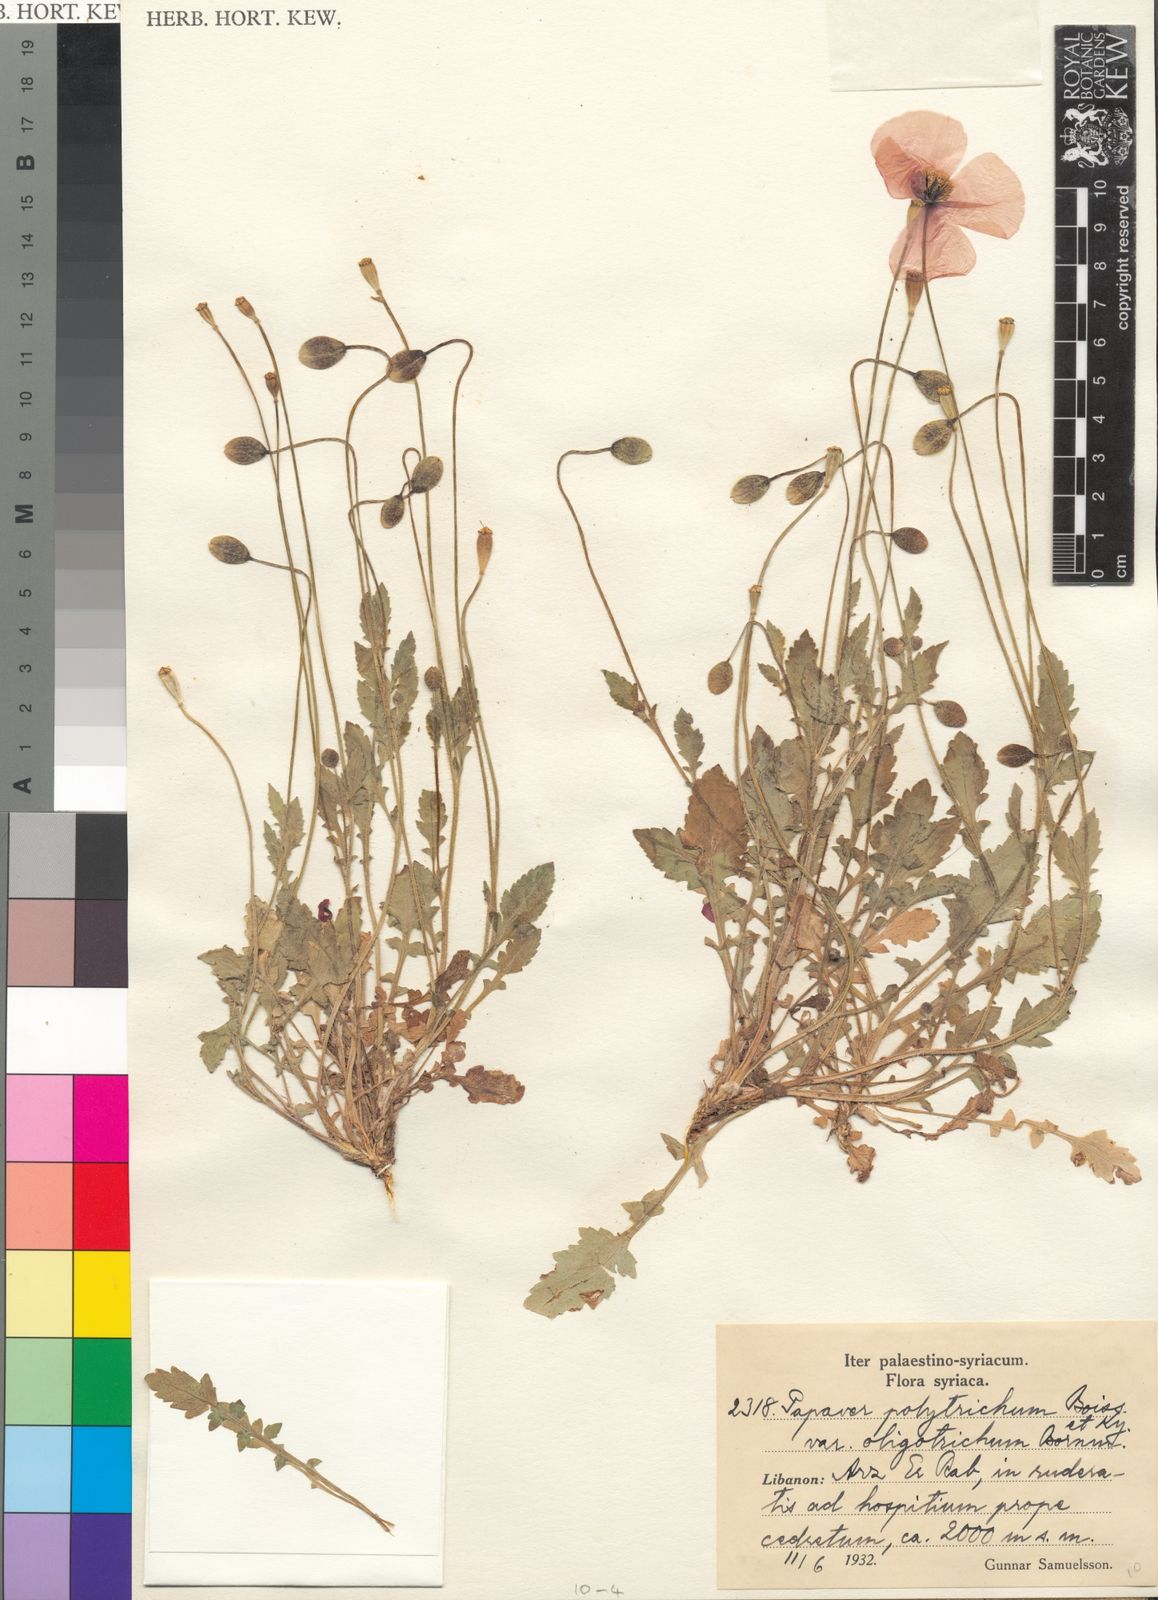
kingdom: Plantae
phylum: Tracheophyta
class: Magnoliopsida
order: Ranunculales
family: Papaveraceae
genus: Papaver
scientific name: Papaver rhoeas
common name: Corn poppy
